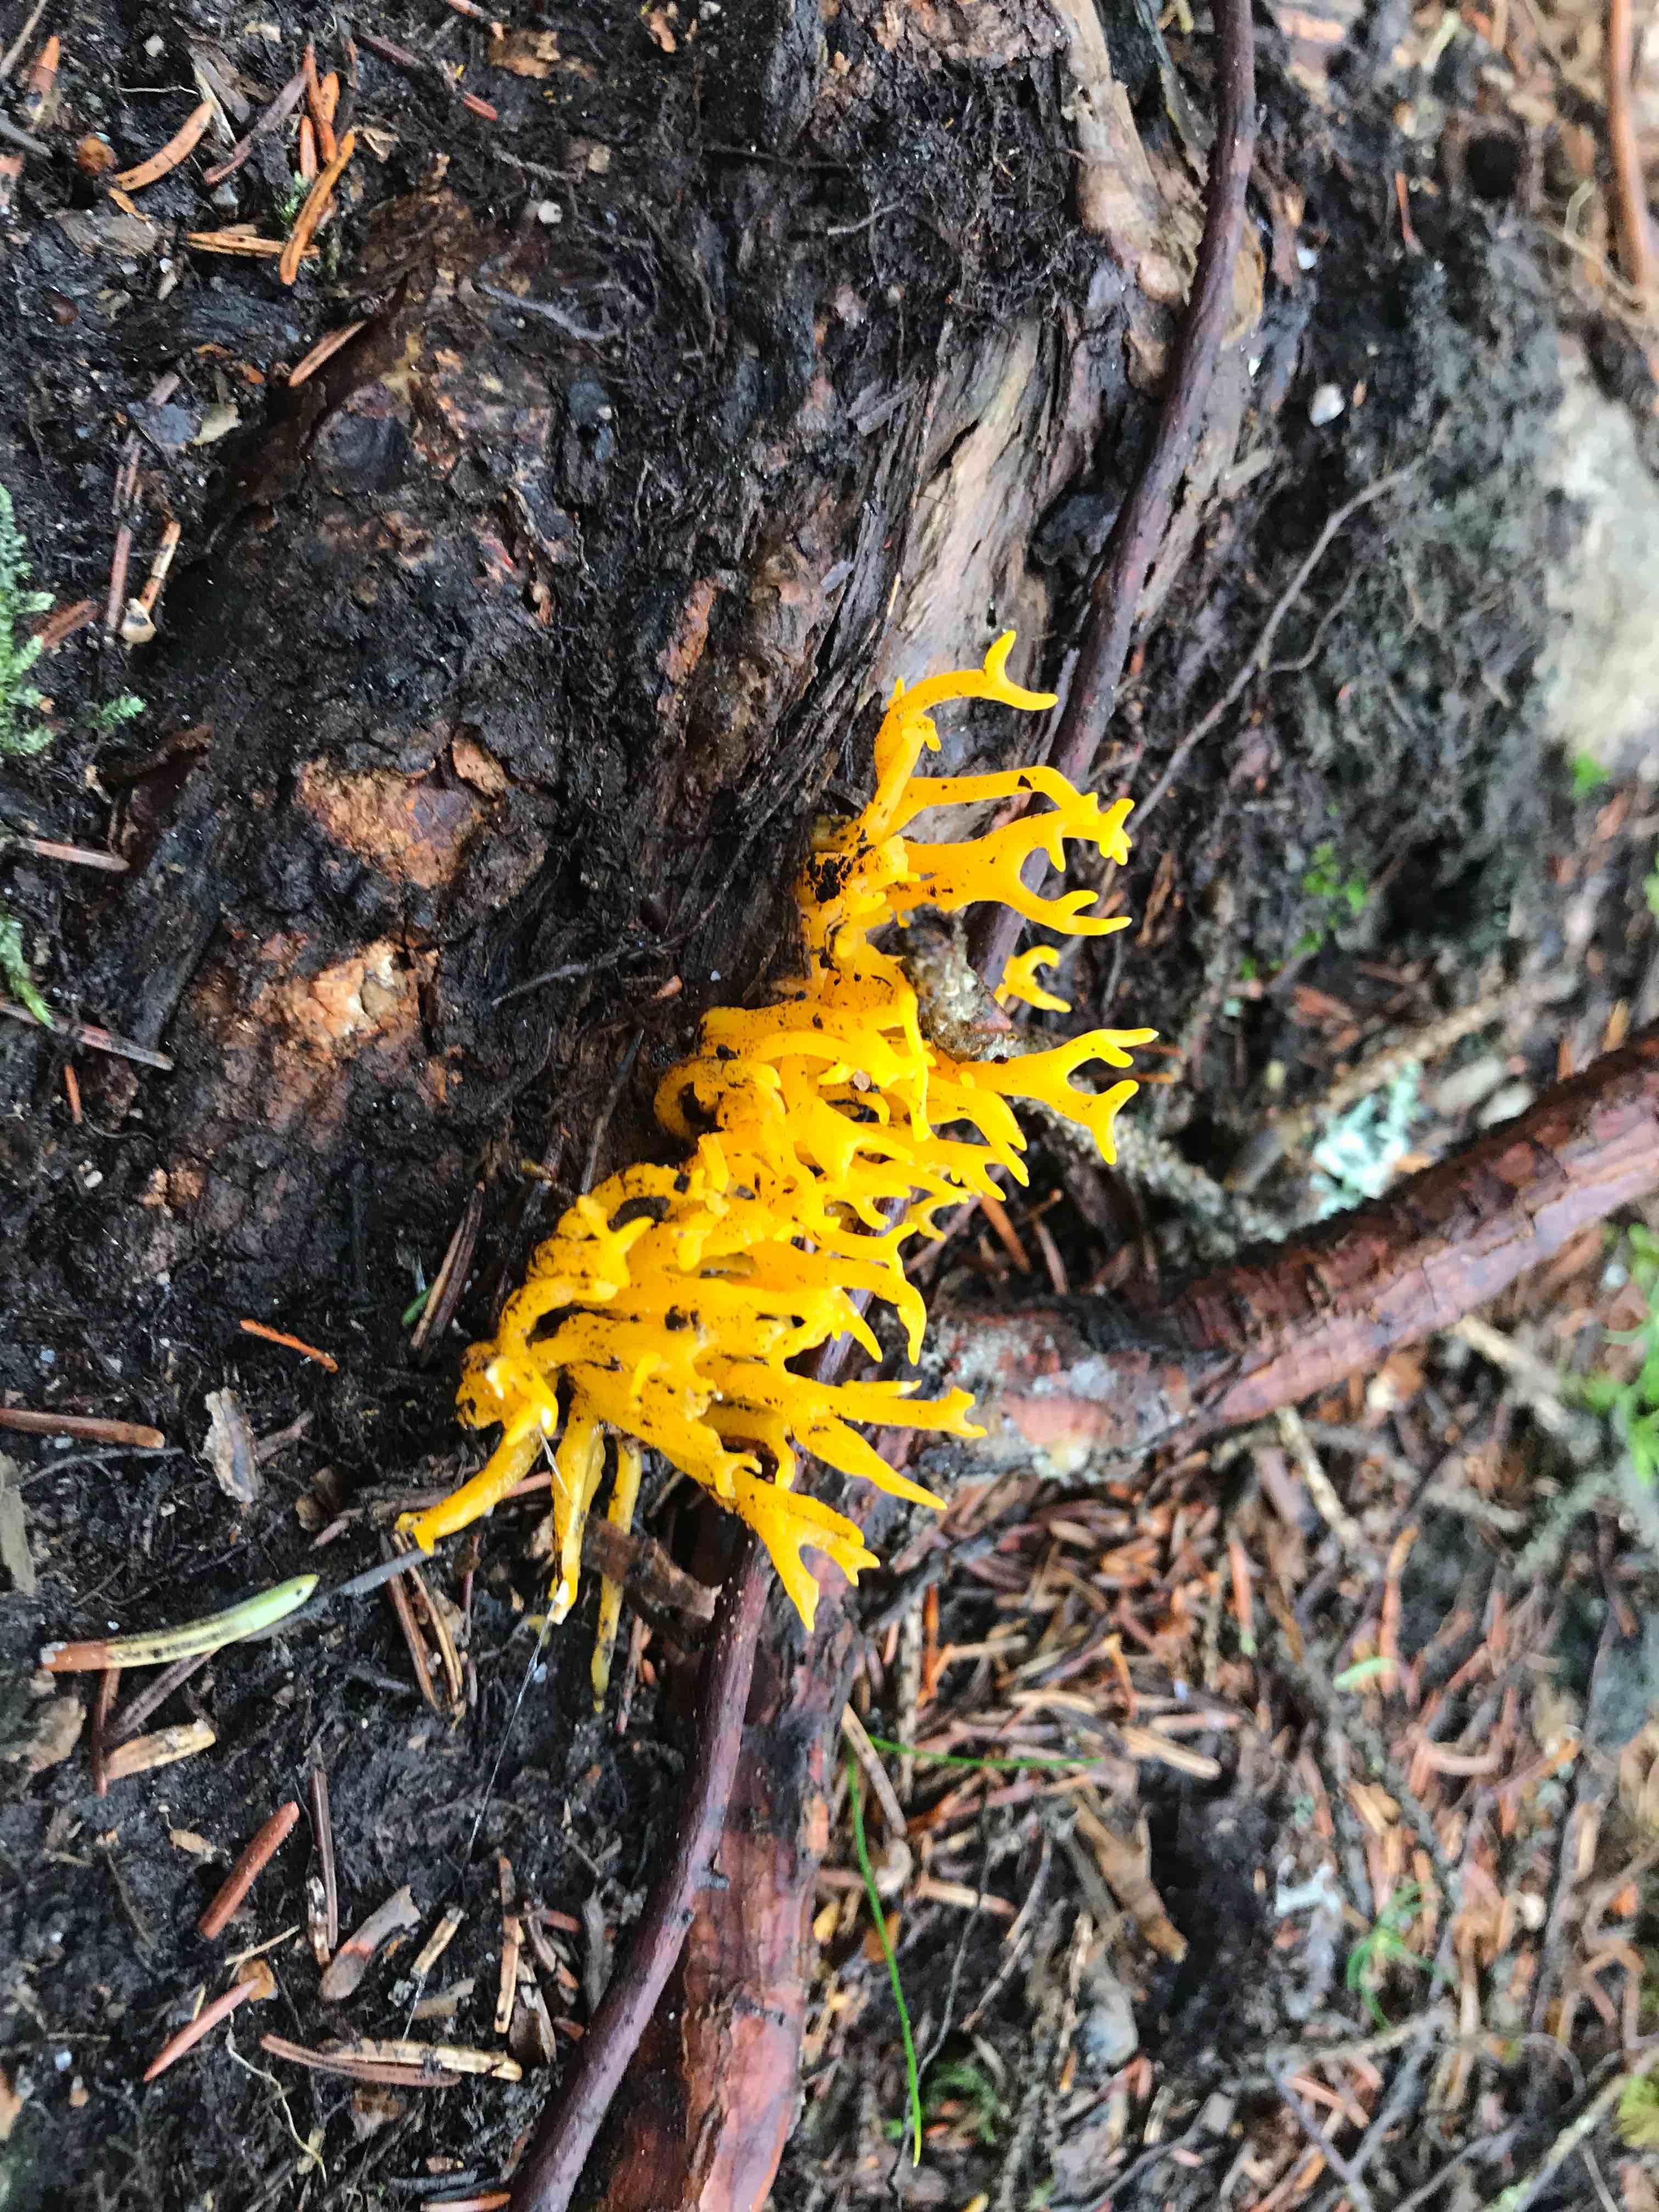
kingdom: Fungi
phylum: Basidiomycota
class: Dacrymycetes
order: Dacrymycetales
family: Dacrymycetaceae
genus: Calocera
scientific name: Calocera viscosa
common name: almindelig guldgaffel
